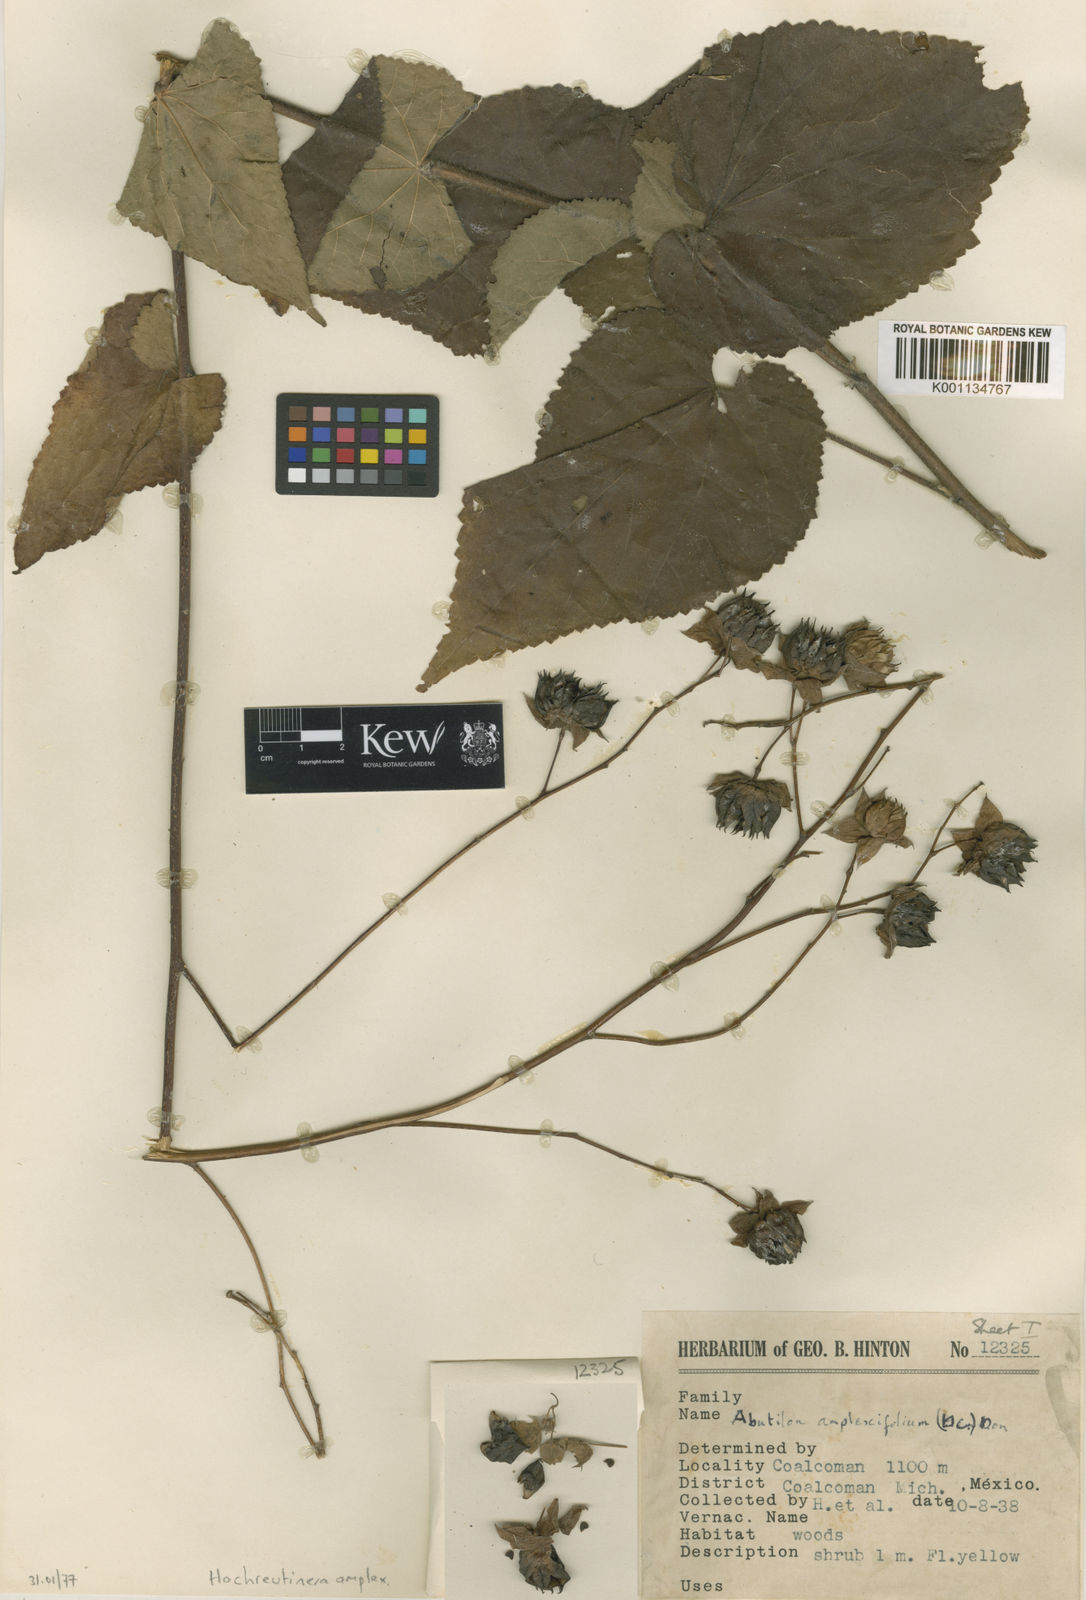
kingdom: Plantae
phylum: Tracheophyta
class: Magnoliopsida
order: Malvales
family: Malvaceae
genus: Hochreutinera
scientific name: Hochreutinera amplexifolia
